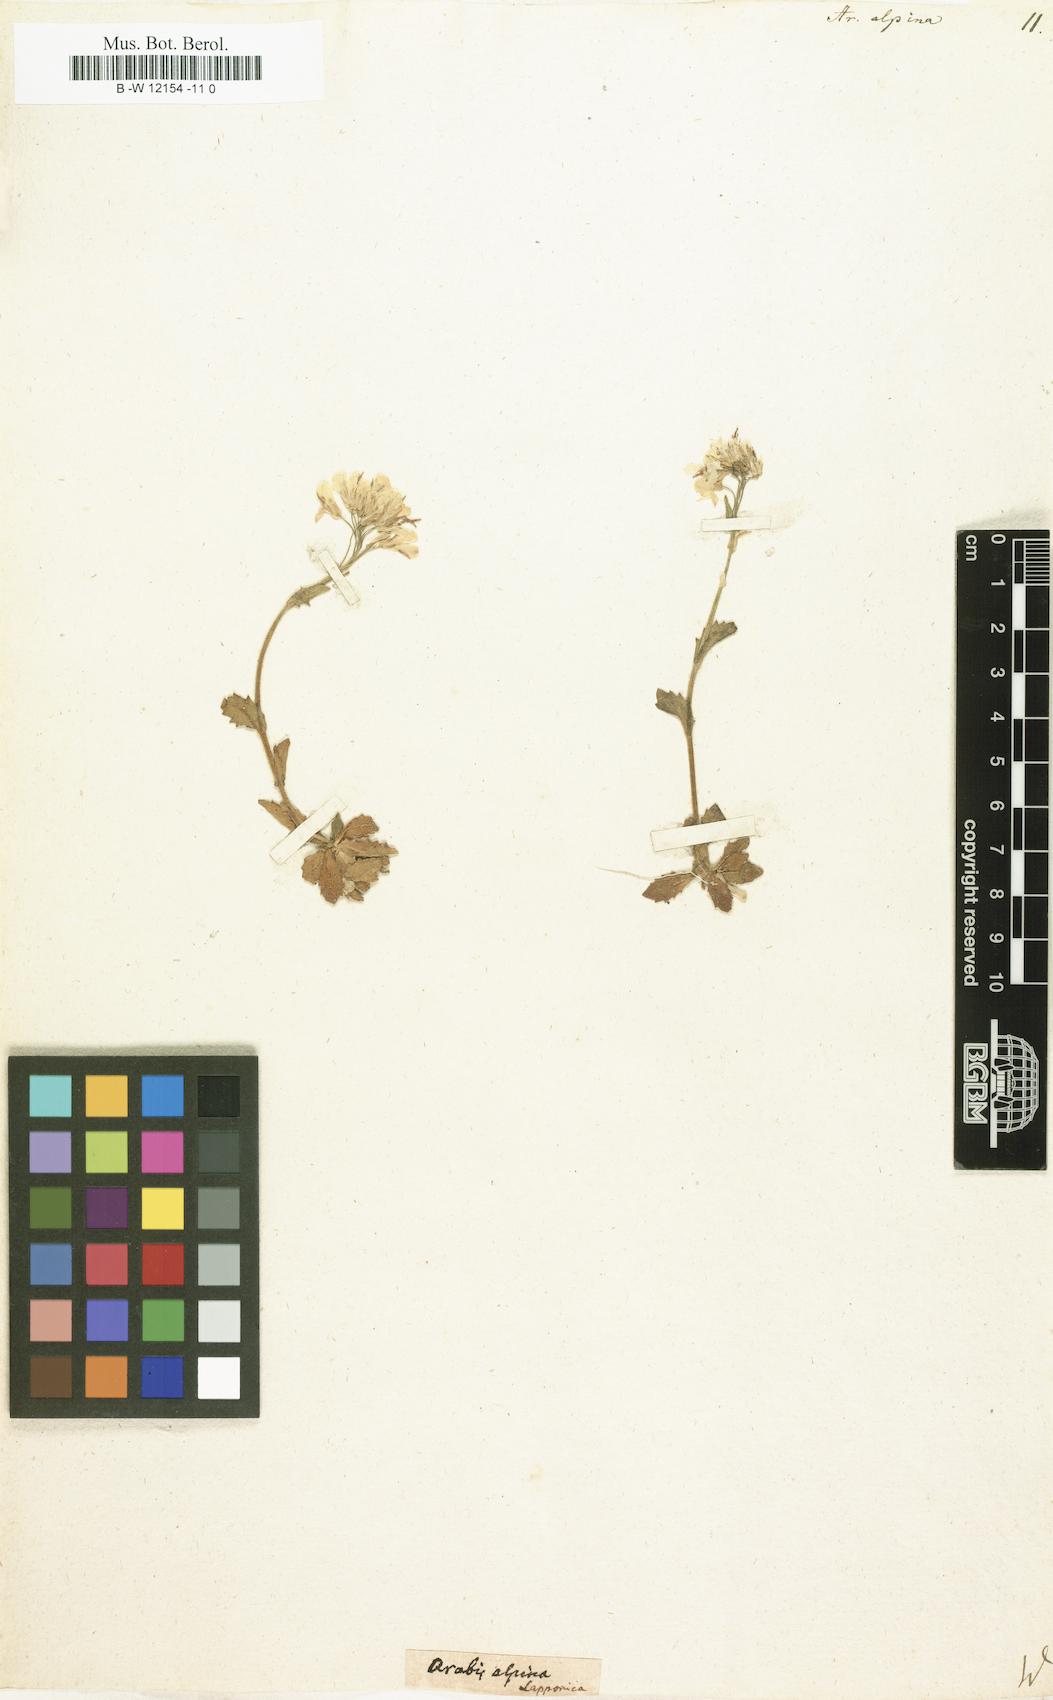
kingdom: Plantae
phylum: Tracheophyta
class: Magnoliopsida
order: Brassicales
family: Brassicaceae
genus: Arabis
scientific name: Arabis alpina
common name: Alpine rock-cress
